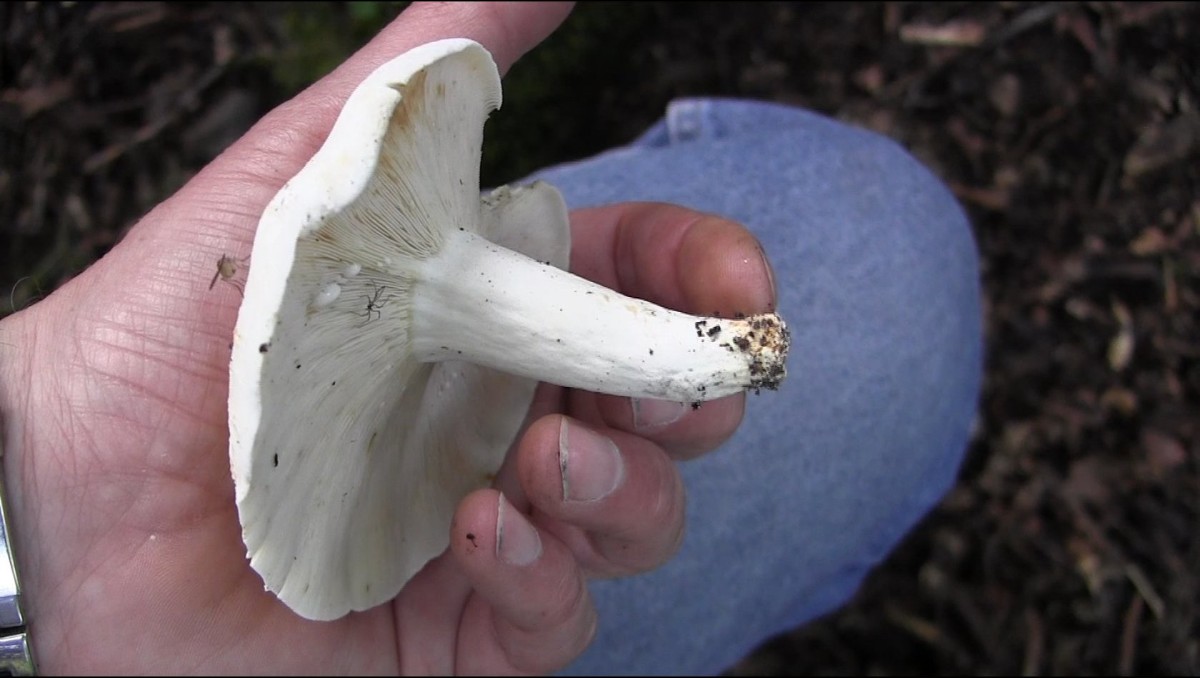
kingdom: Fungi
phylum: Basidiomycota
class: Agaricomycetes
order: Russulales
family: Russulaceae
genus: Lactifluus
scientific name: Lactifluus piperatus
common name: peber-mælkehat
